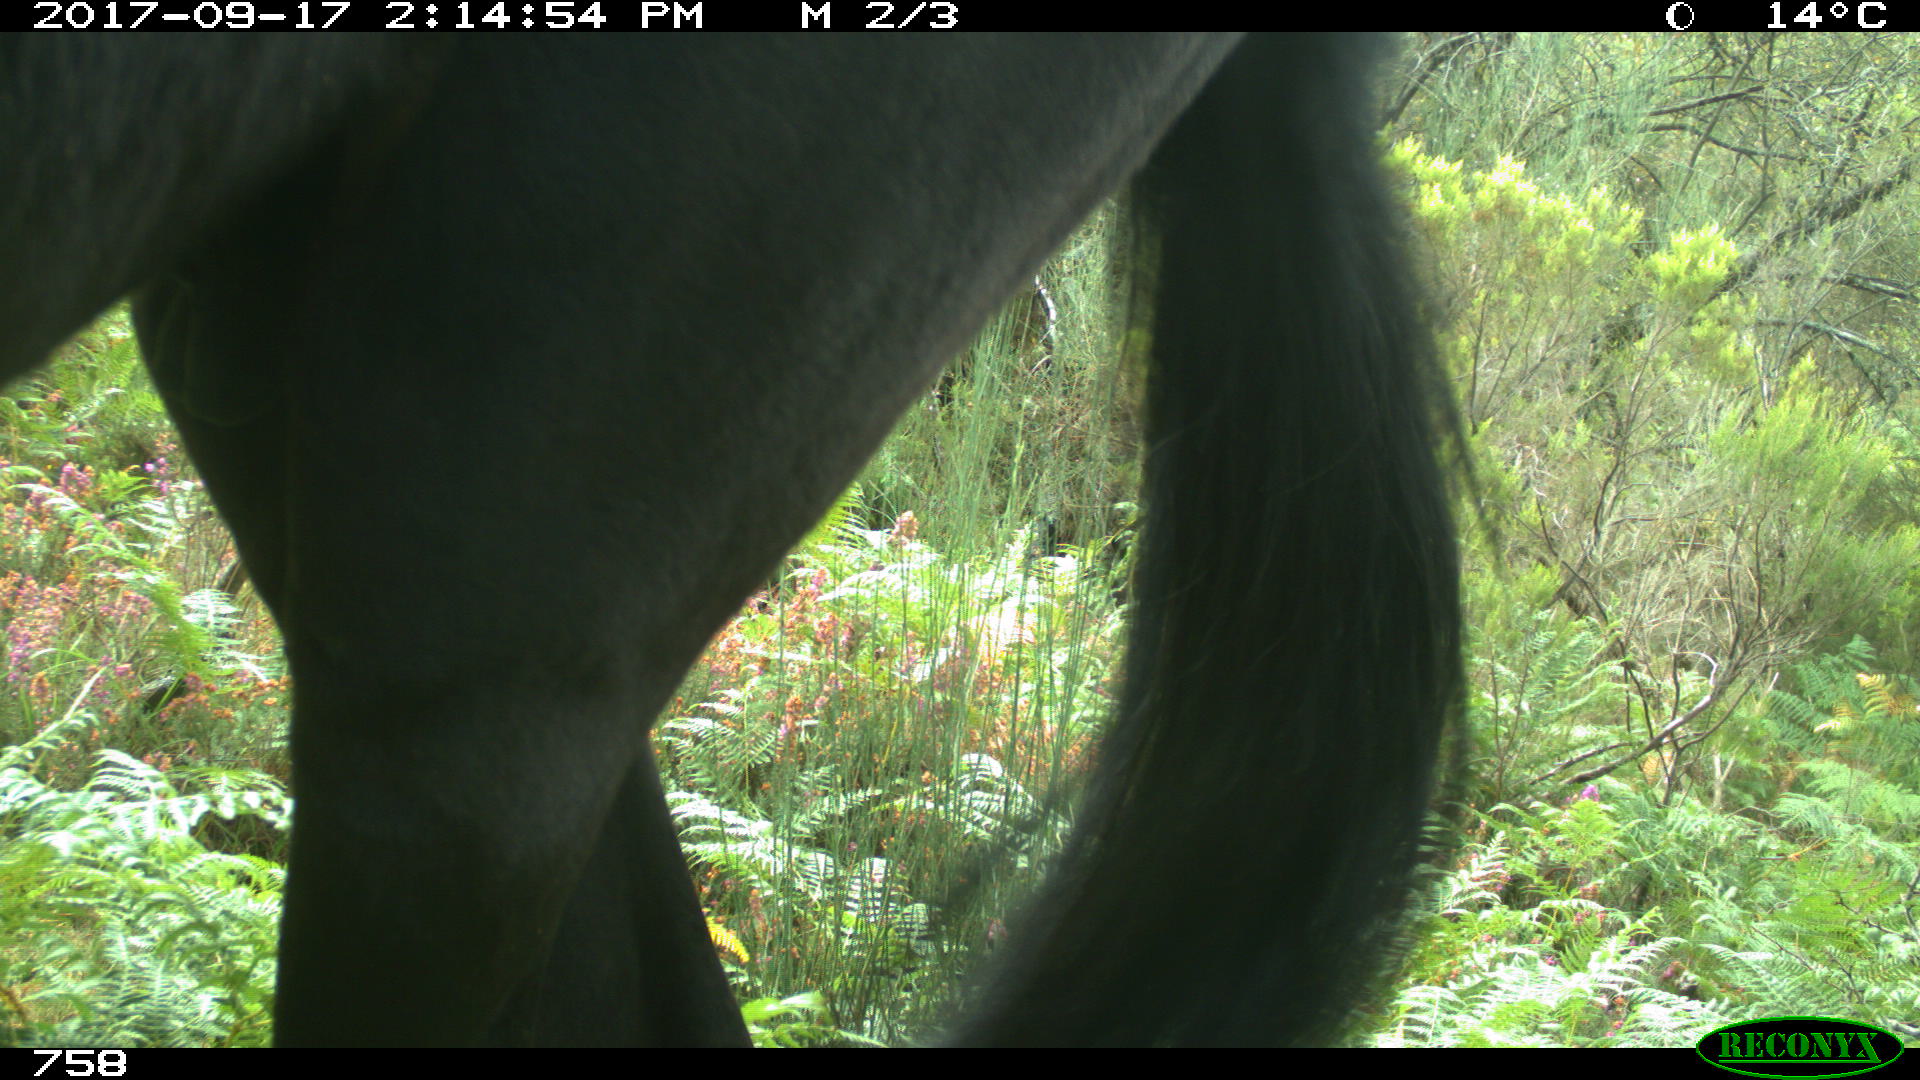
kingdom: Animalia
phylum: Chordata
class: Mammalia
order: Perissodactyla
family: Equidae
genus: Equus
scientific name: Equus caballus
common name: Horse
